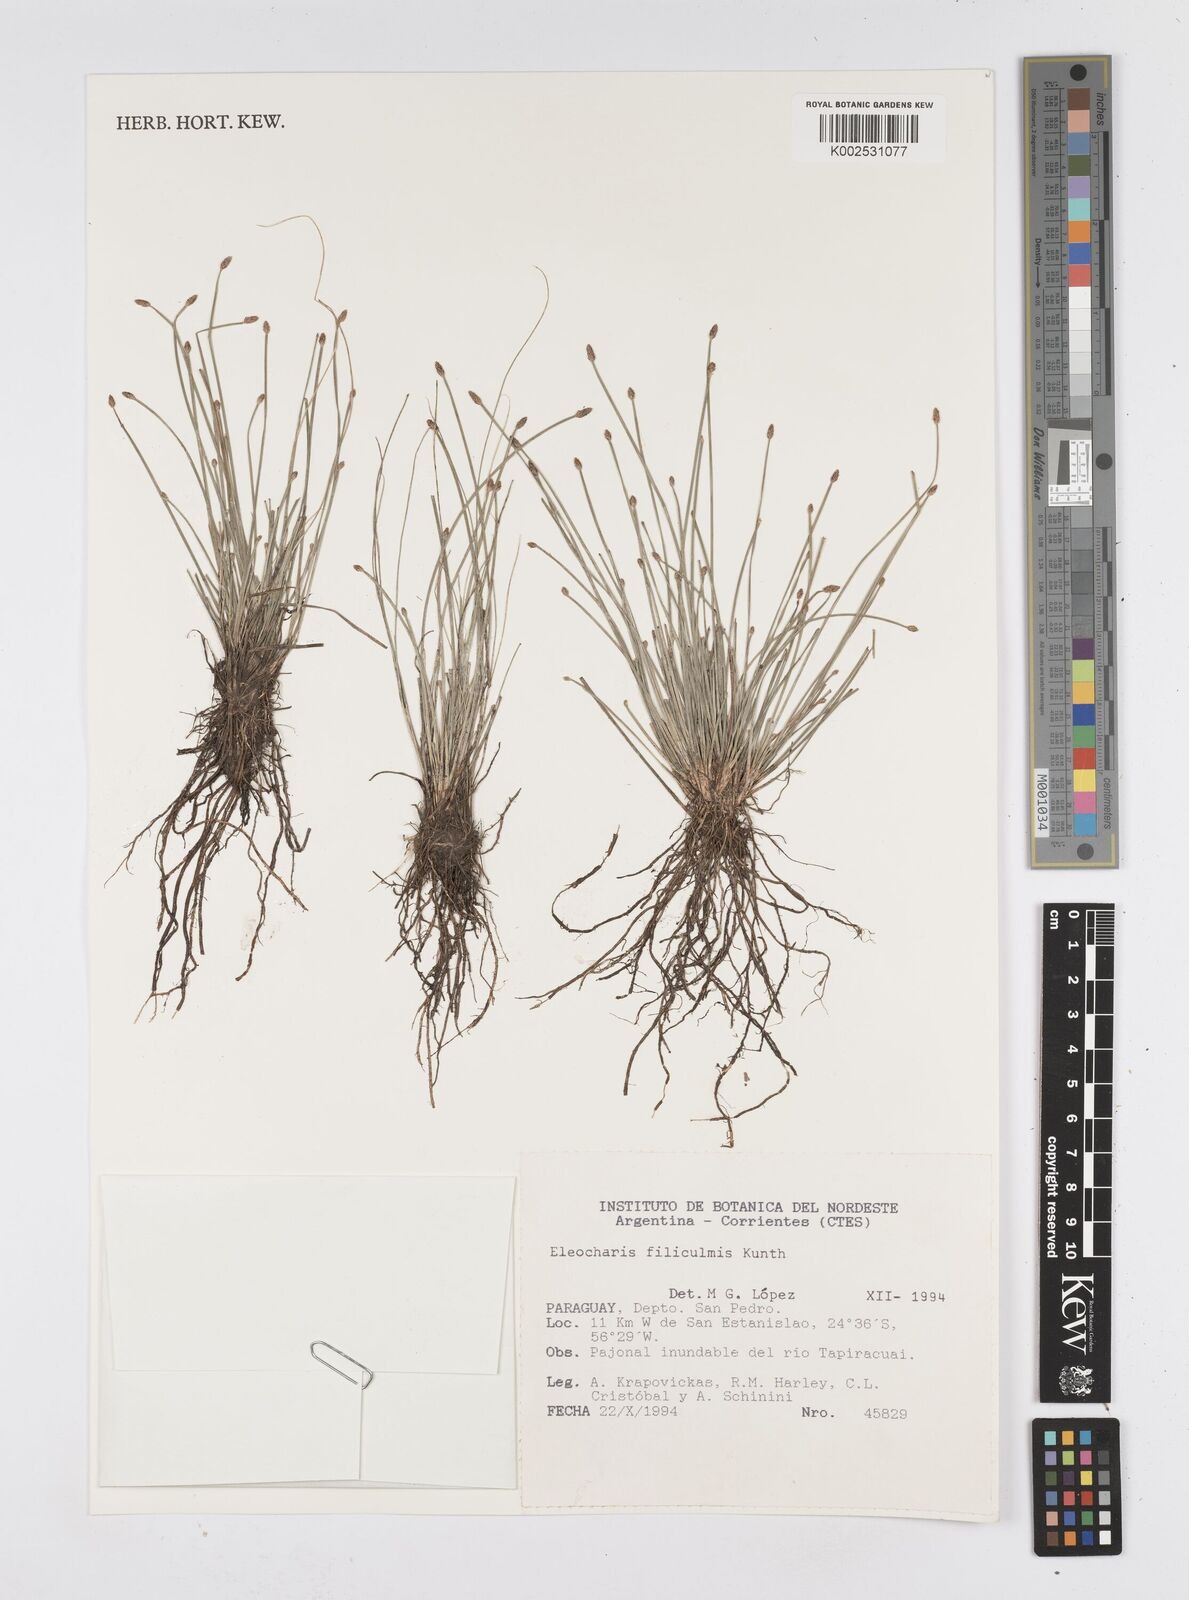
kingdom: Plantae
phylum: Tracheophyta
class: Liliopsida
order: Poales
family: Cyperaceae
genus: Eleocharis
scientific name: Eleocharis filiculmis
